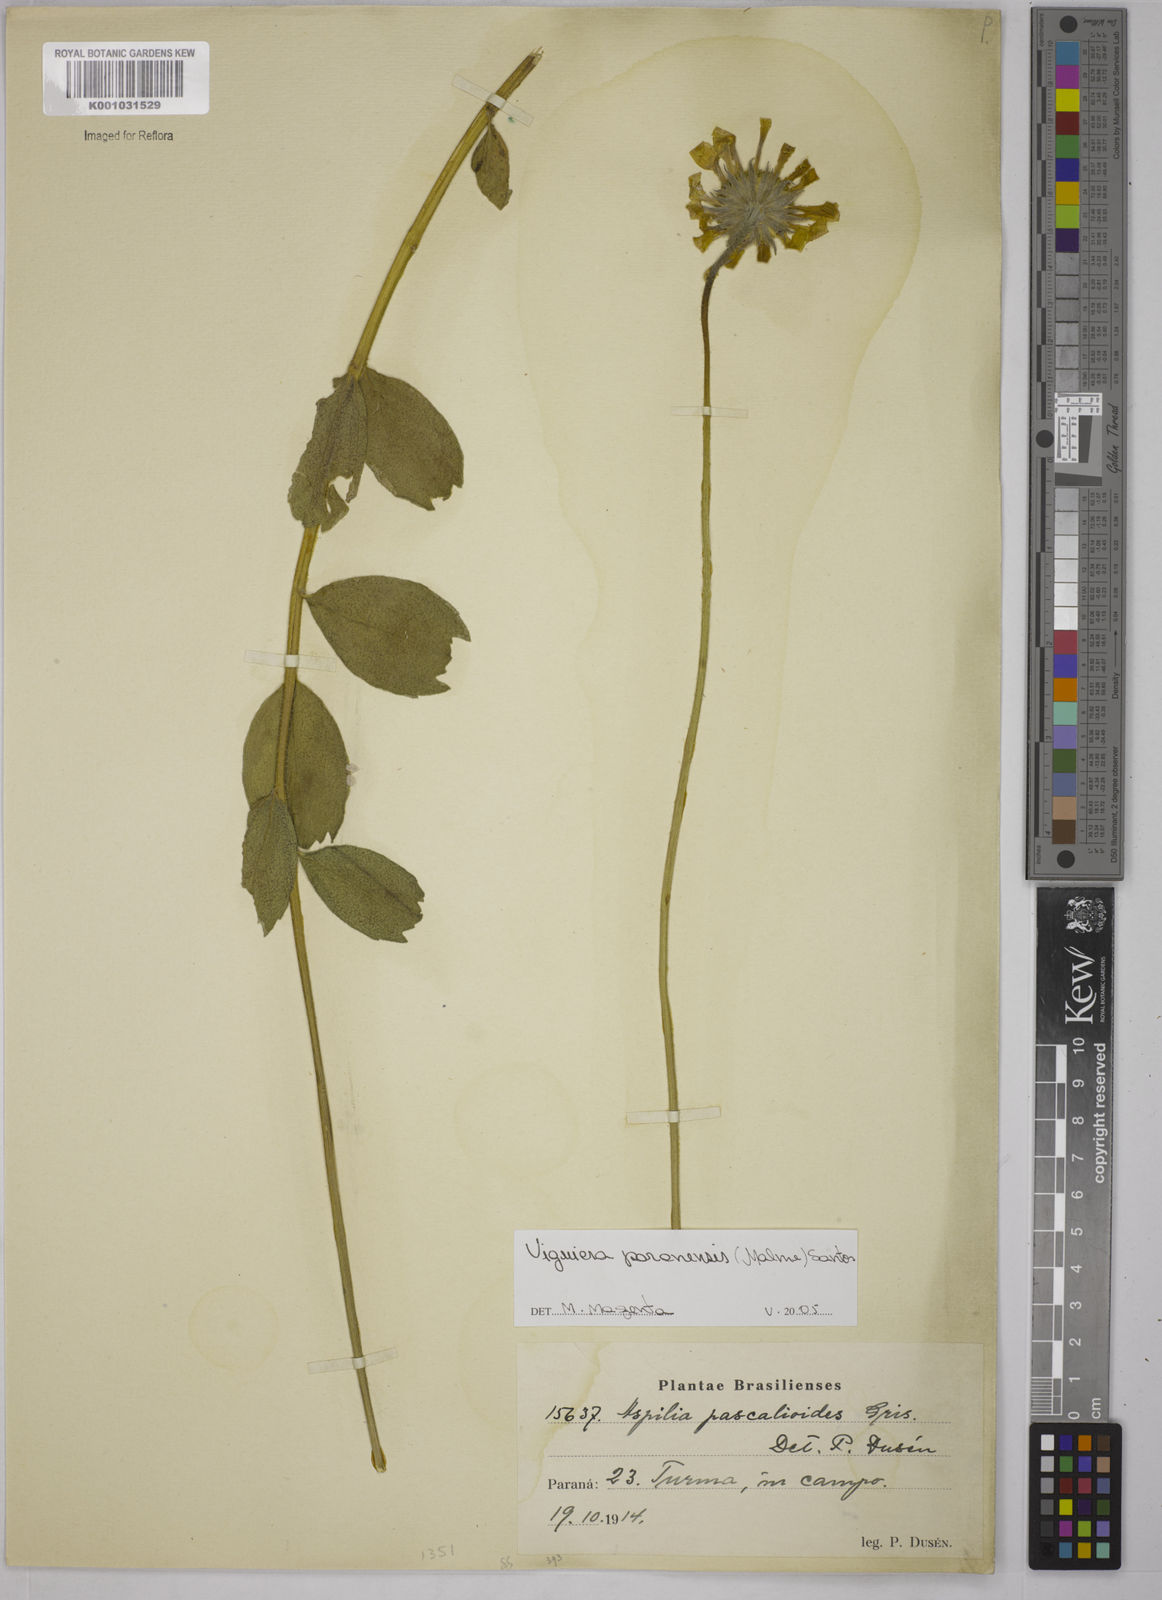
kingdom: Plantae
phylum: Tracheophyta
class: Magnoliopsida
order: Asterales
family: Asteraceae
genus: Aldama
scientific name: Aldama paranensis
